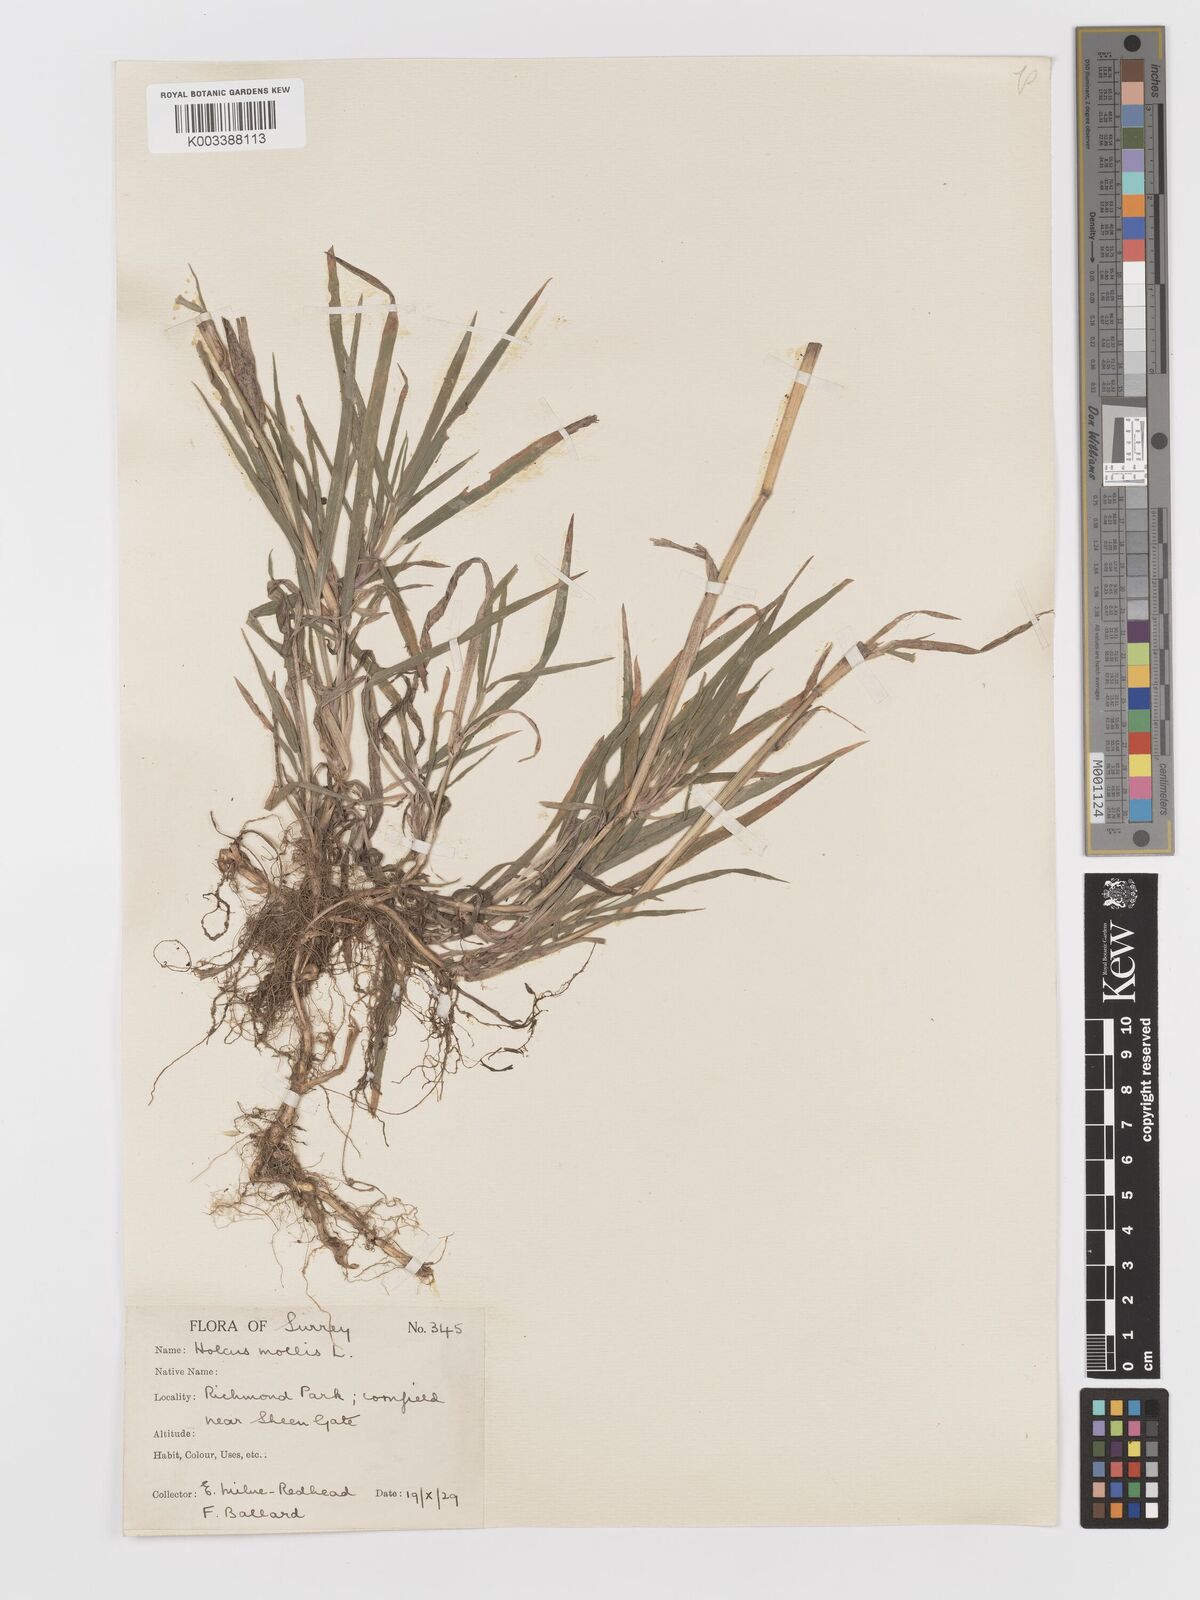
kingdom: Plantae
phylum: Tracheophyta
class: Liliopsida
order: Poales
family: Poaceae
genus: Holcus
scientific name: Holcus mollis
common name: Creeping velvetgrass
